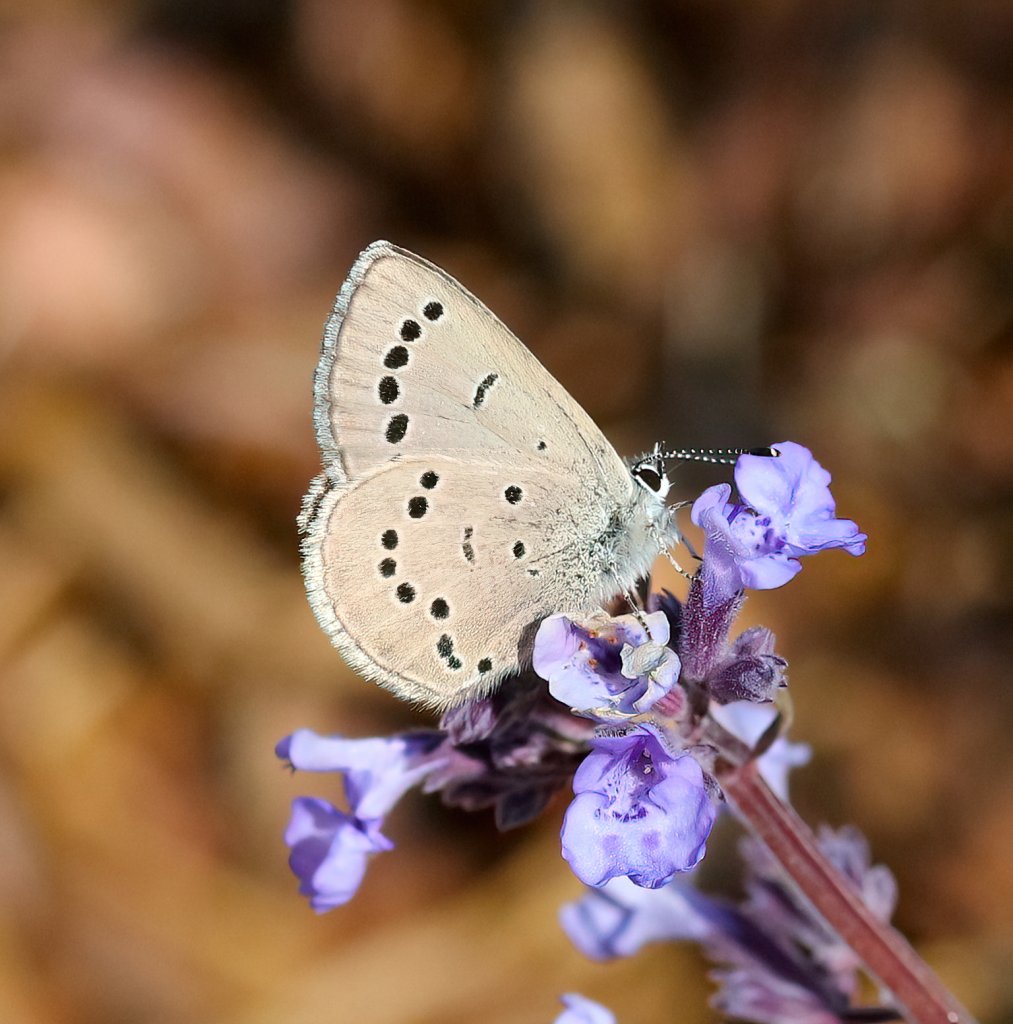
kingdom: Animalia
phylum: Arthropoda
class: Insecta
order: Lepidoptera
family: Lycaenidae
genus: Glaucopsyche
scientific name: Glaucopsyche lygdamus
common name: Silvery Blue
